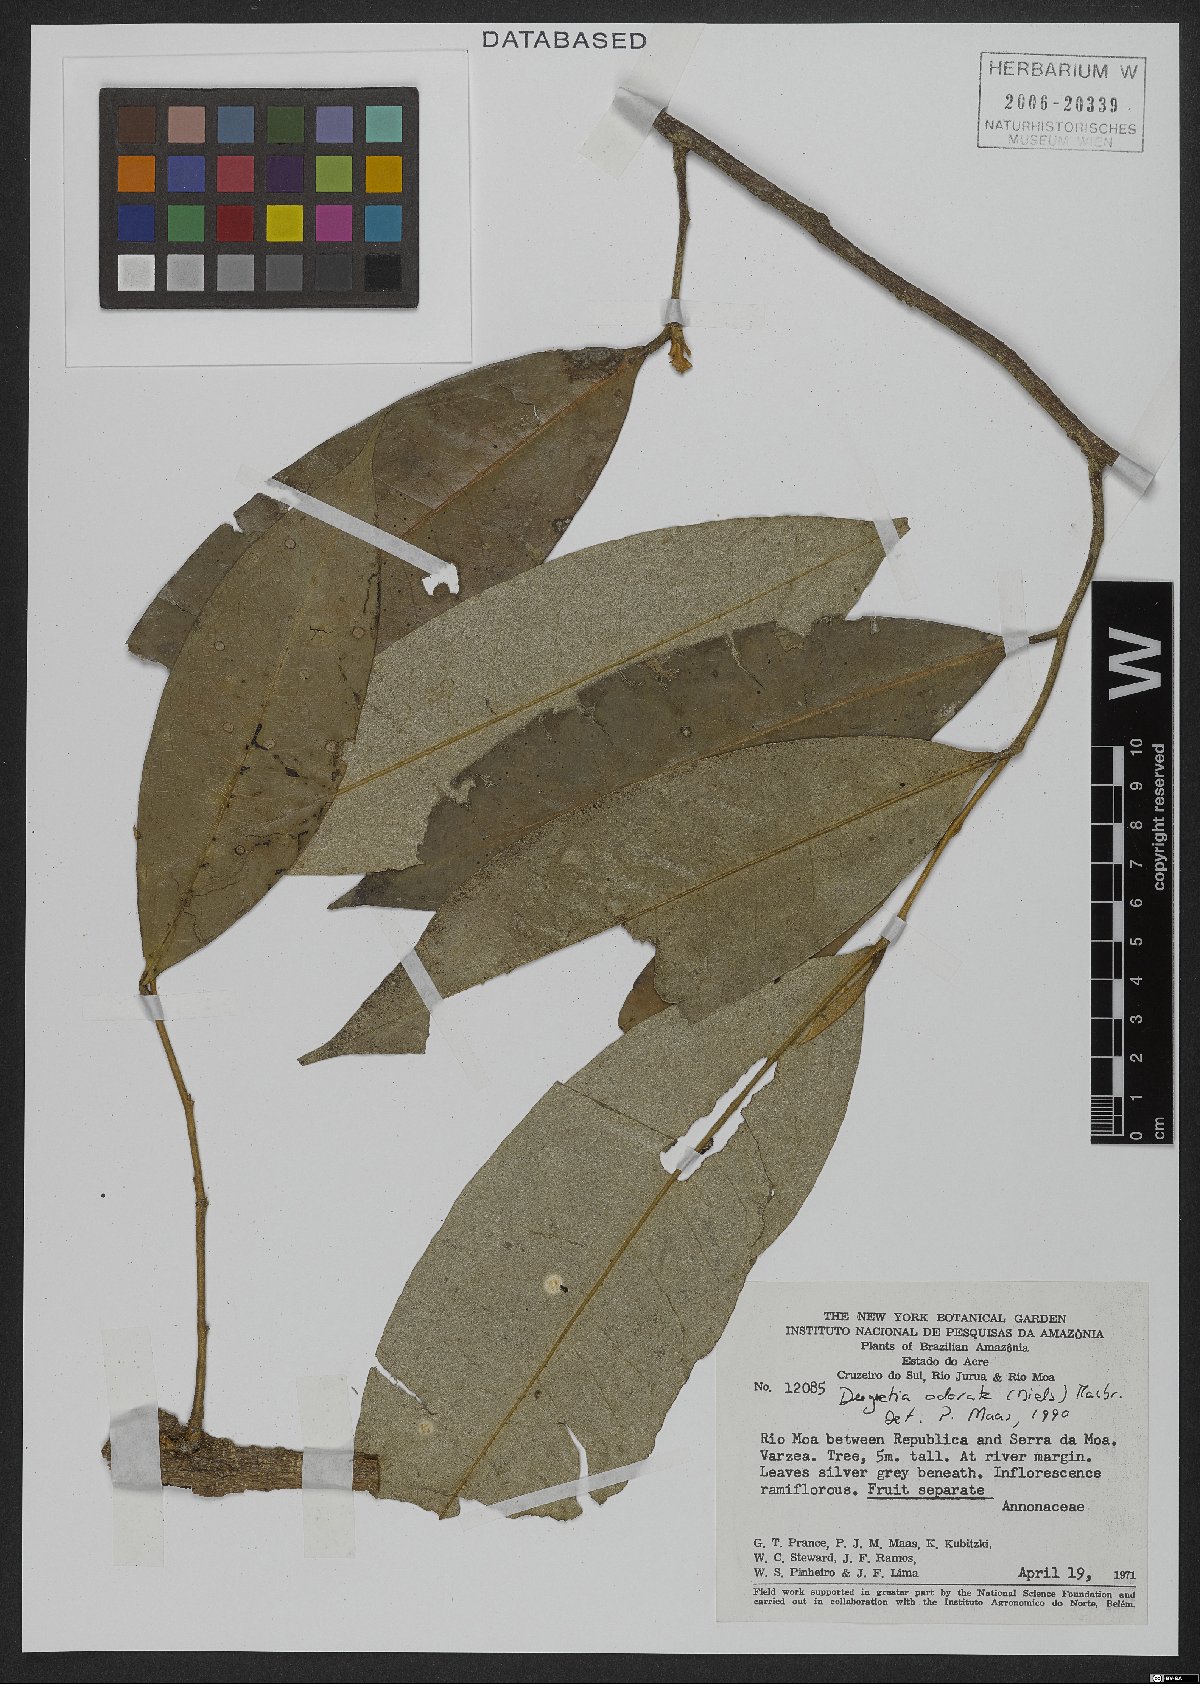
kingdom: Plantae
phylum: Tracheophyta
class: Magnoliopsida
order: Magnoliales
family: Annonaceae
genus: Duguetia
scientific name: Duguetia odorata
